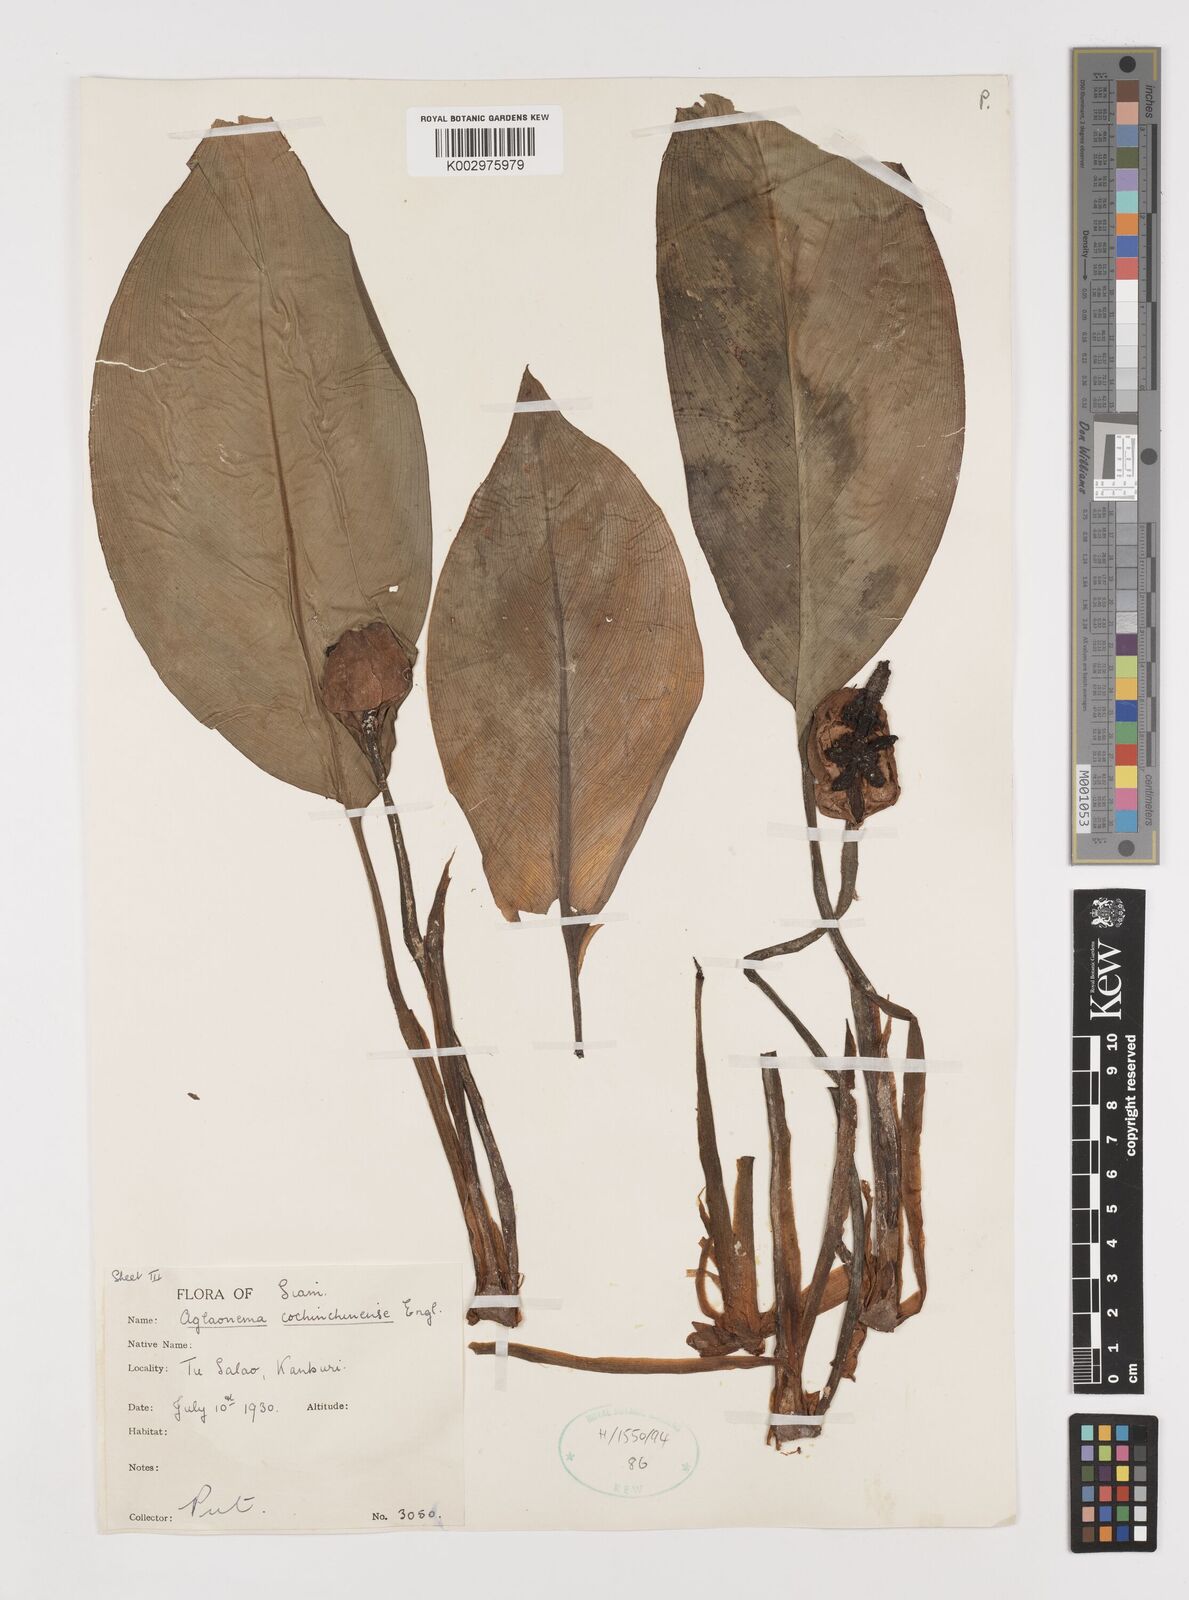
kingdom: Plantae
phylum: Tracheophyta
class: Liliopsida
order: Alismatales
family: Araceae
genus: Aglaonema
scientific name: Aglaonema cochinchinense
